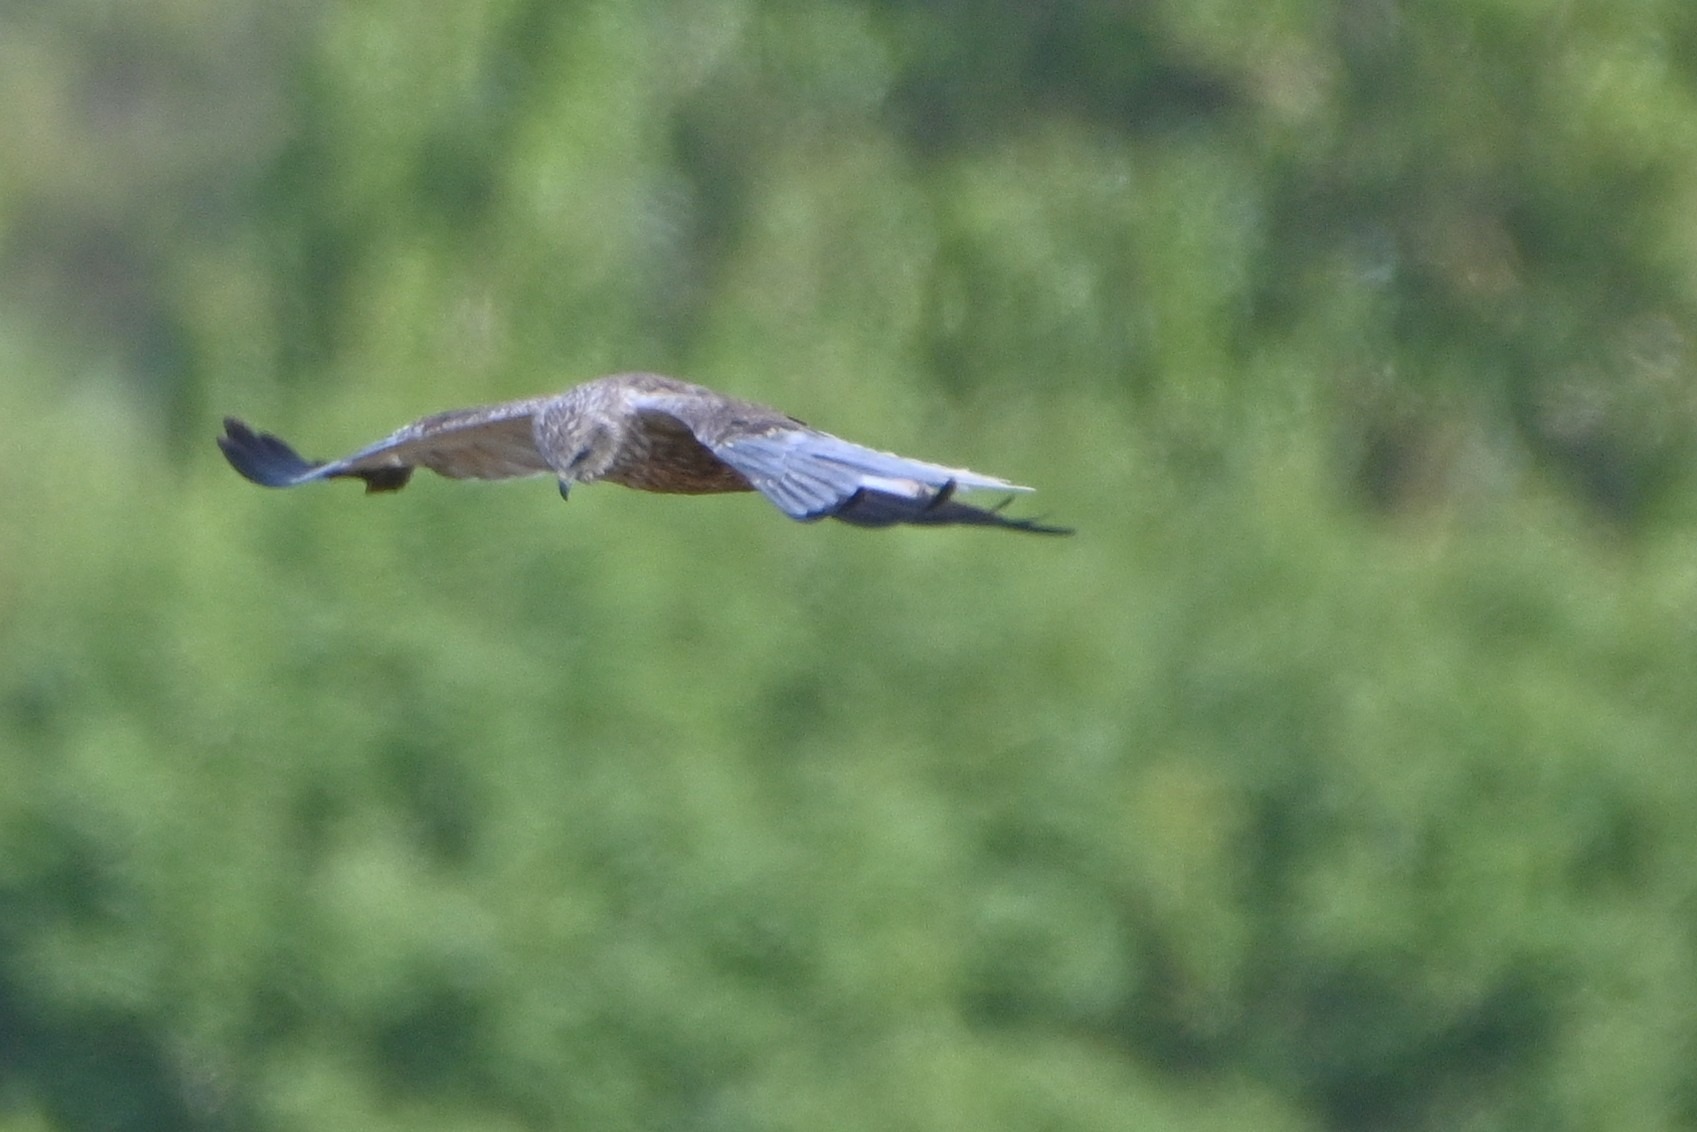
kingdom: Animalia
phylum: Chordata
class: Aves
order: Accipitriformes
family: Accipitridae
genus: Circus
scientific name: Circus aeruginosus
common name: Rørhøg
